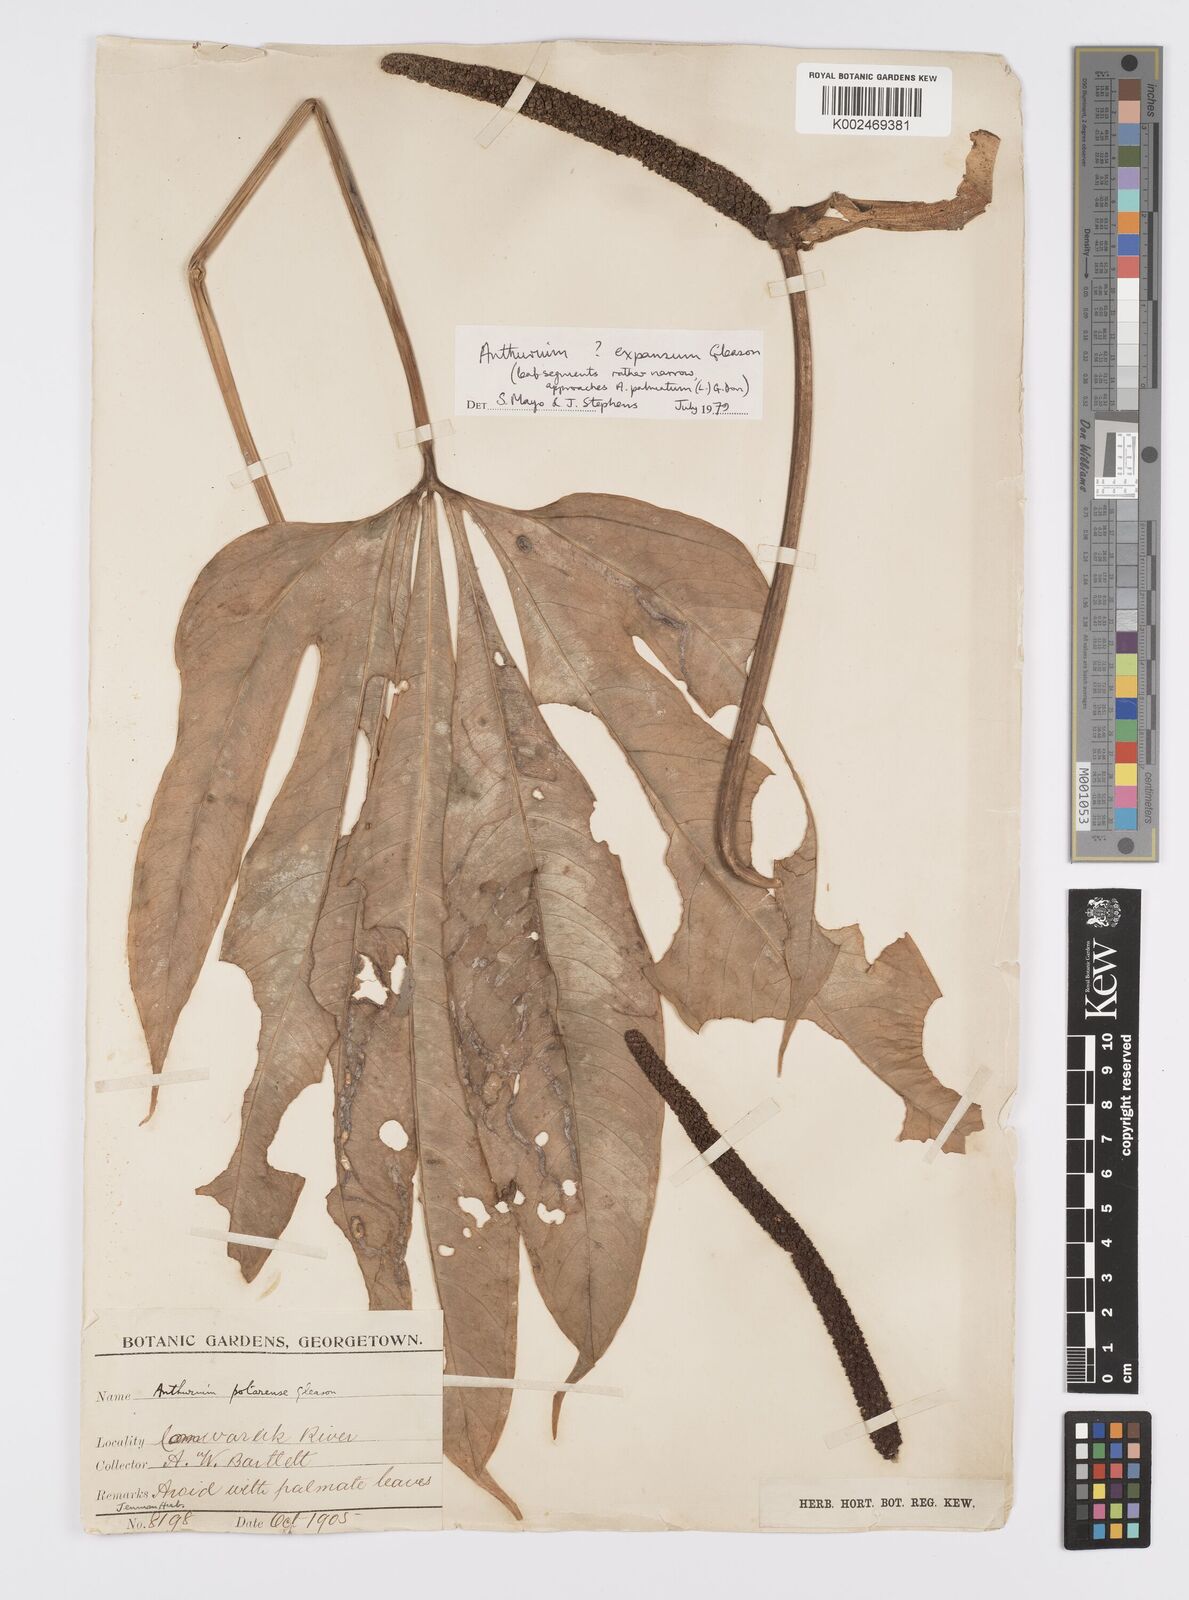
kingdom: Plantae
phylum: Tracheophyta
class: Liliopsida
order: Alismatales
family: Araceae
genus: Anthurium
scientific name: Anthurium expansum
